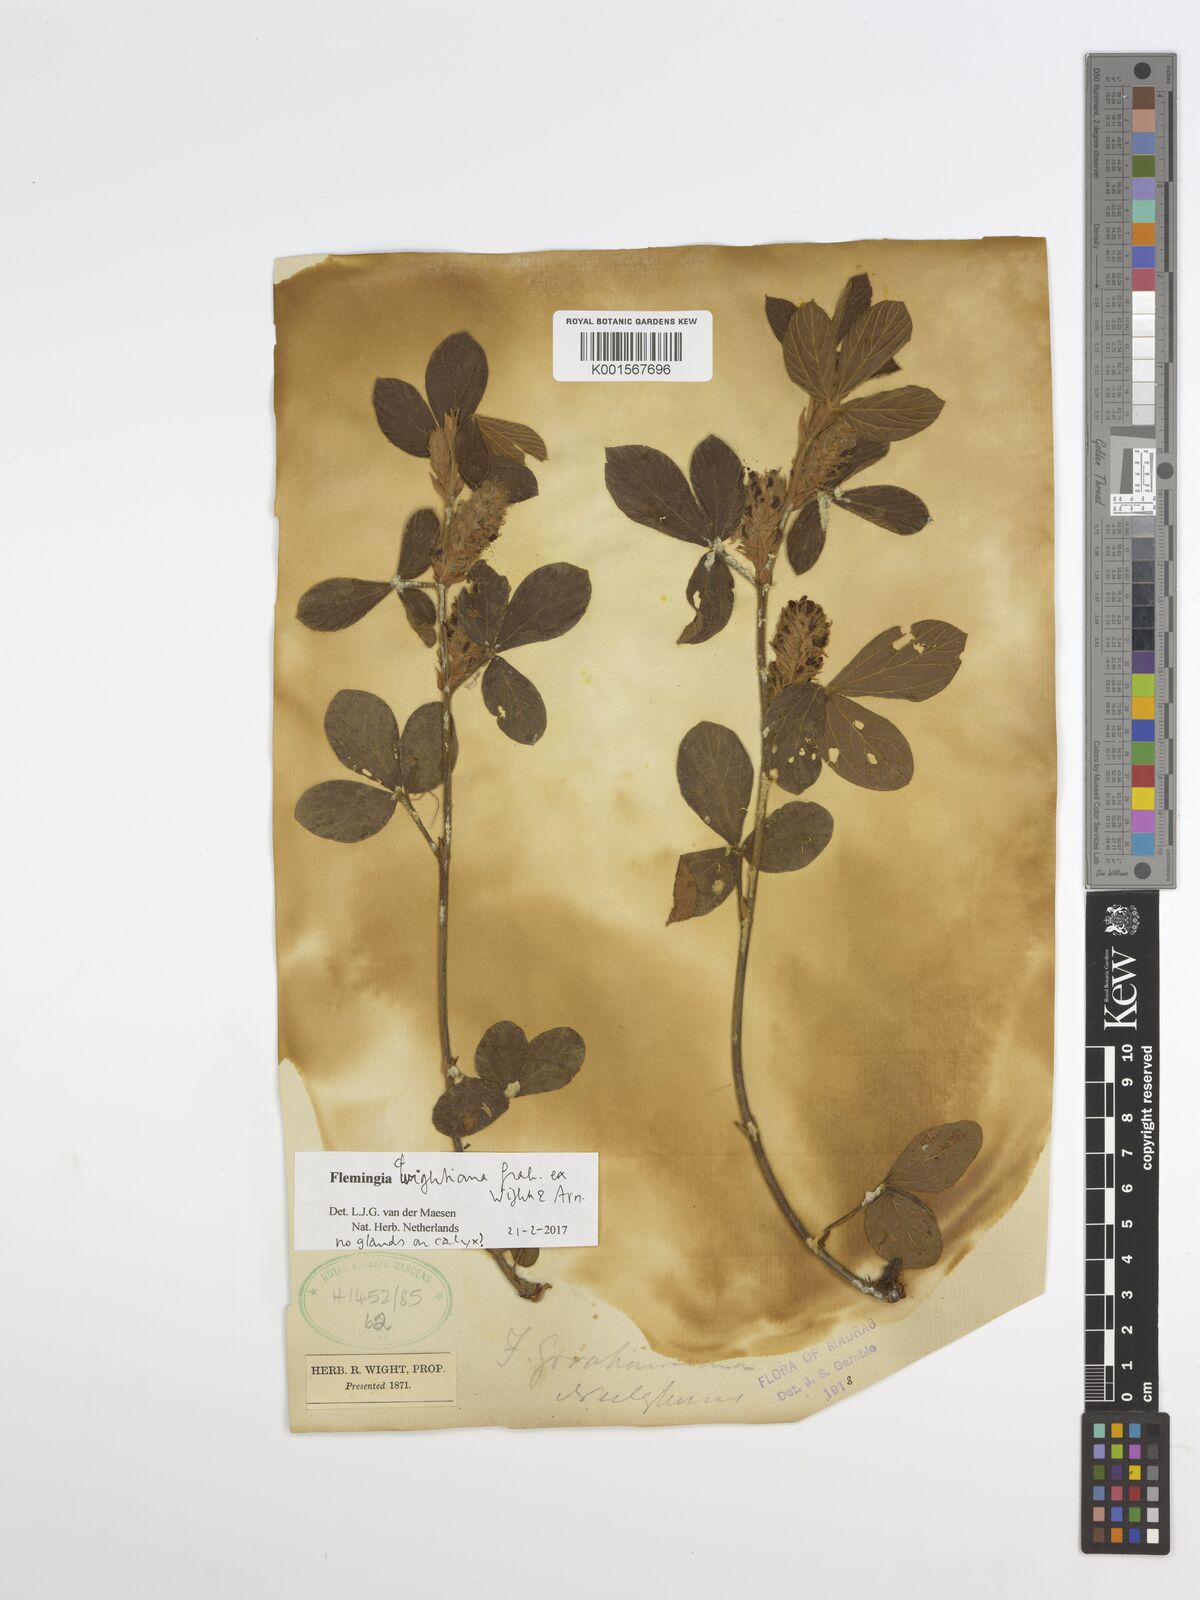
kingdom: Plantae
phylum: Tracheophyta
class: Magnoliopsida
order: Fabales
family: Fabaceae
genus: Flemingia
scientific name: Flemingia wightiana
